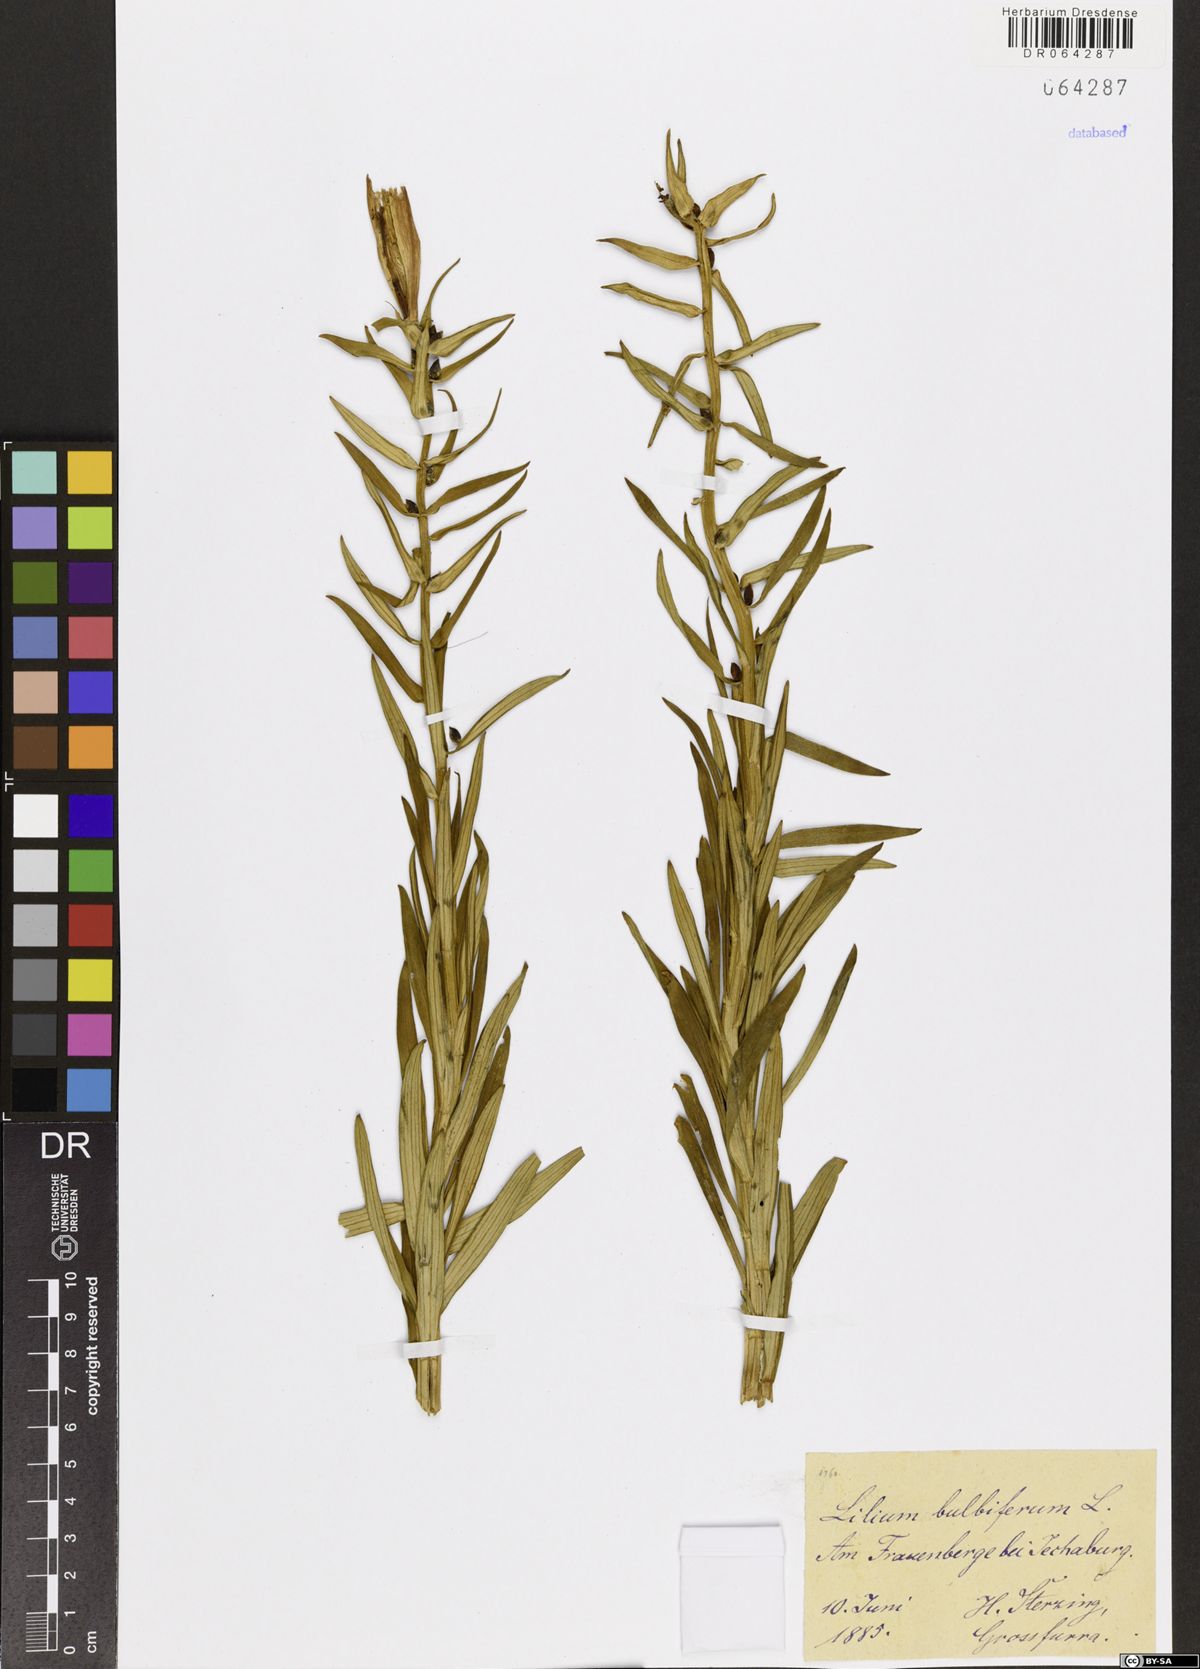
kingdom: Plantae
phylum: Tracheophyta
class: Liliopsida
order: Liliales
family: Liliaceae
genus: Lilium
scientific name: Lilium bulbiferum
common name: Orange lily
